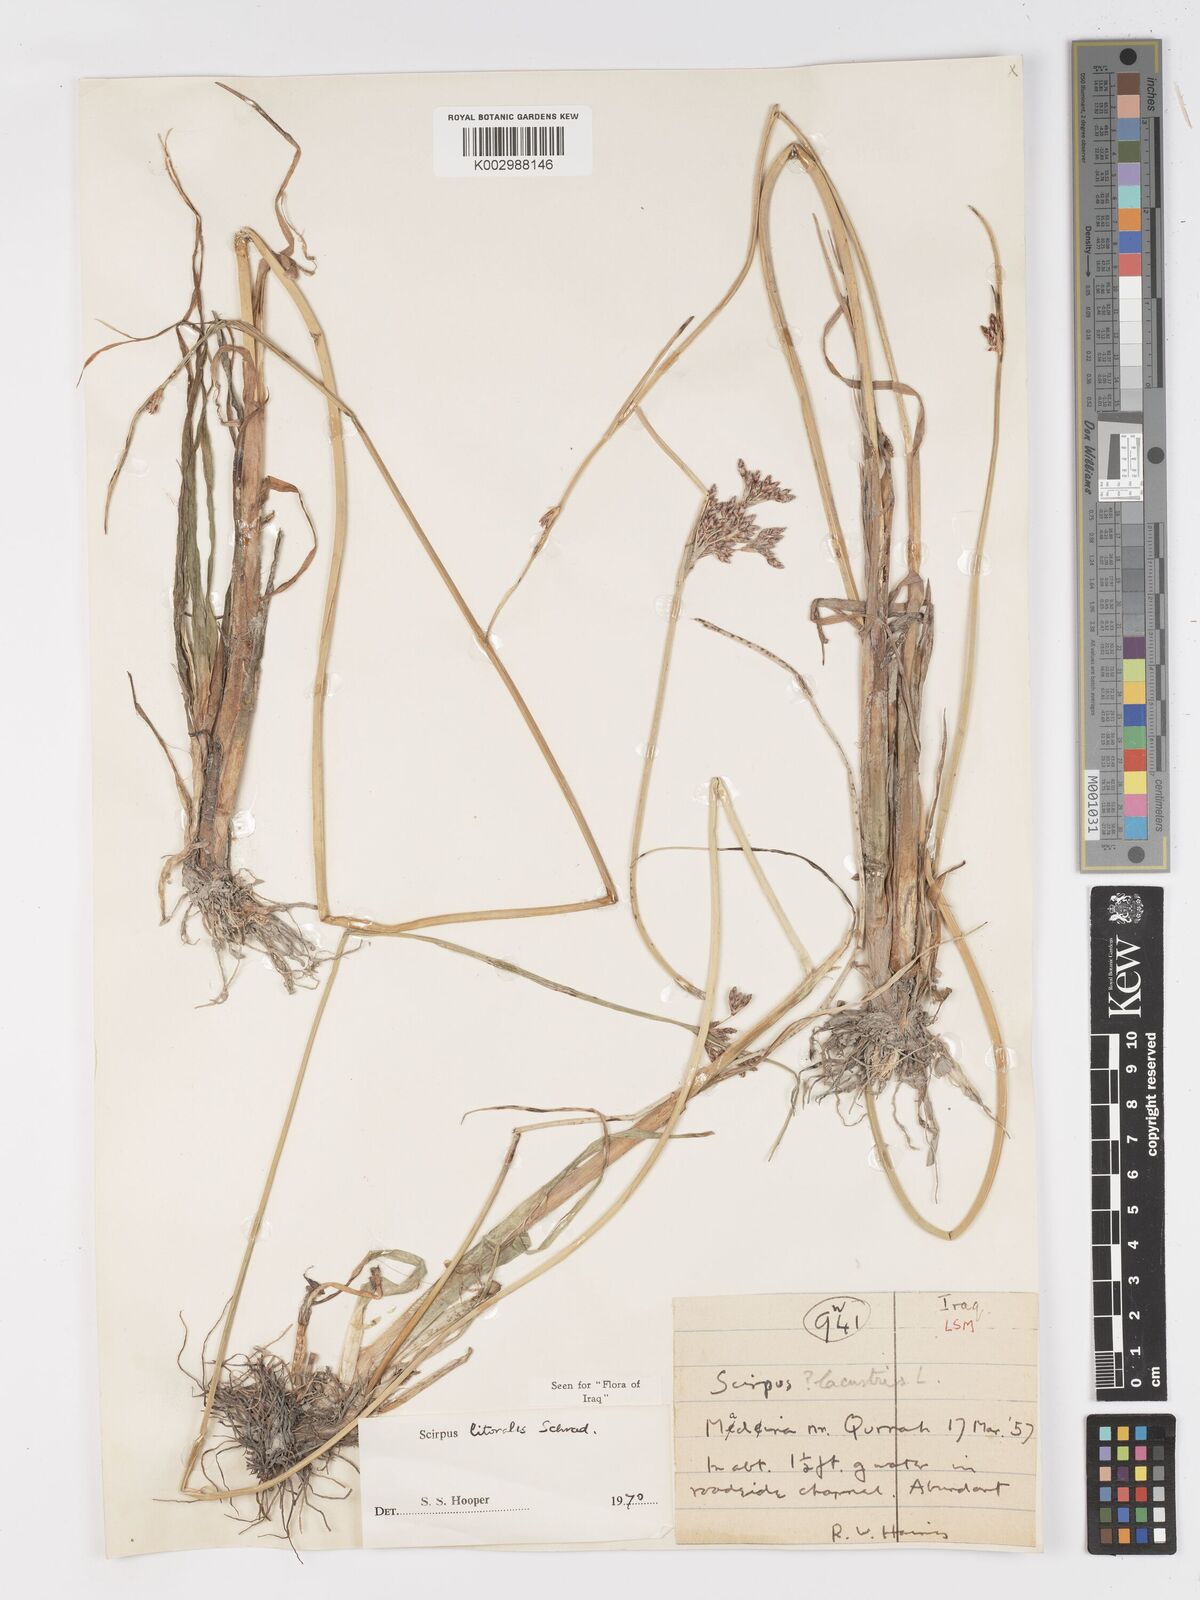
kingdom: Plantae
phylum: Tracheophyta
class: Liliopsida
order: Poales
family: Cyperaceae
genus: Schoenoplectus
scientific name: Schoenoplectus litoralis
